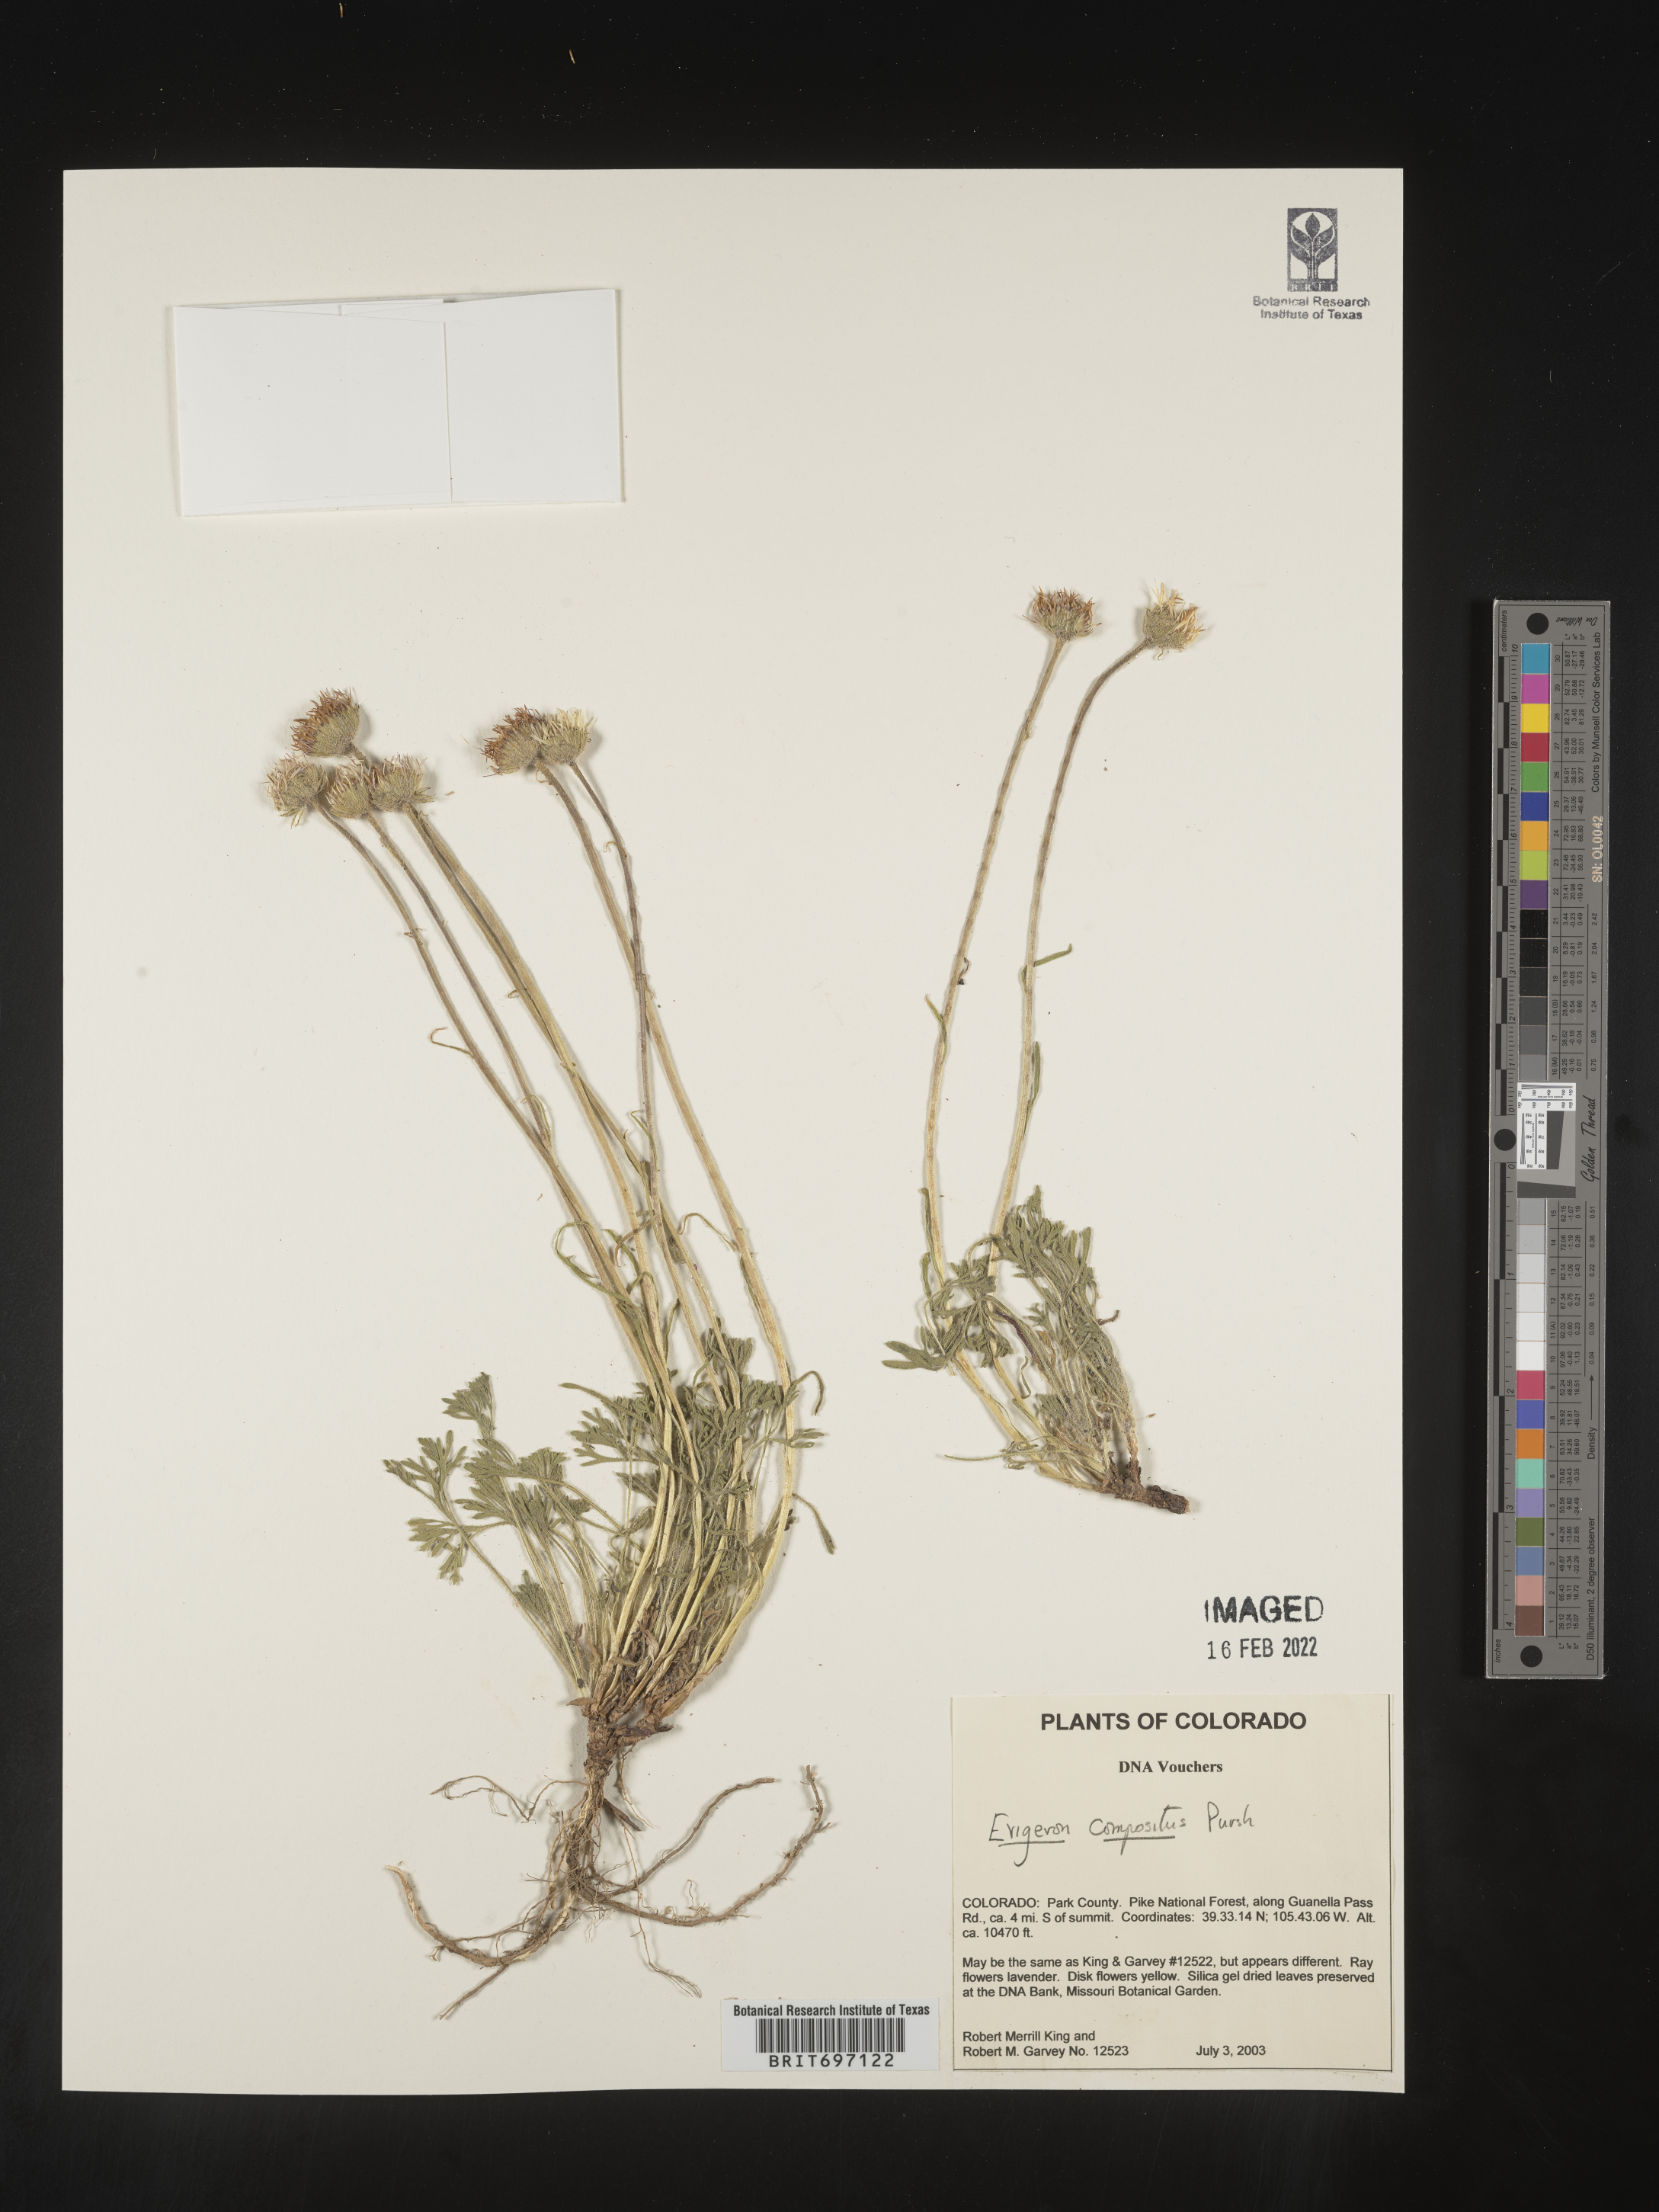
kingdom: Plantae
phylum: Tracheophyta
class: Magnoliopsida
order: Asterales
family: Asteraceae
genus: Erigeron
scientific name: Erigeron compositus
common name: Dwarf mountain fleabane
